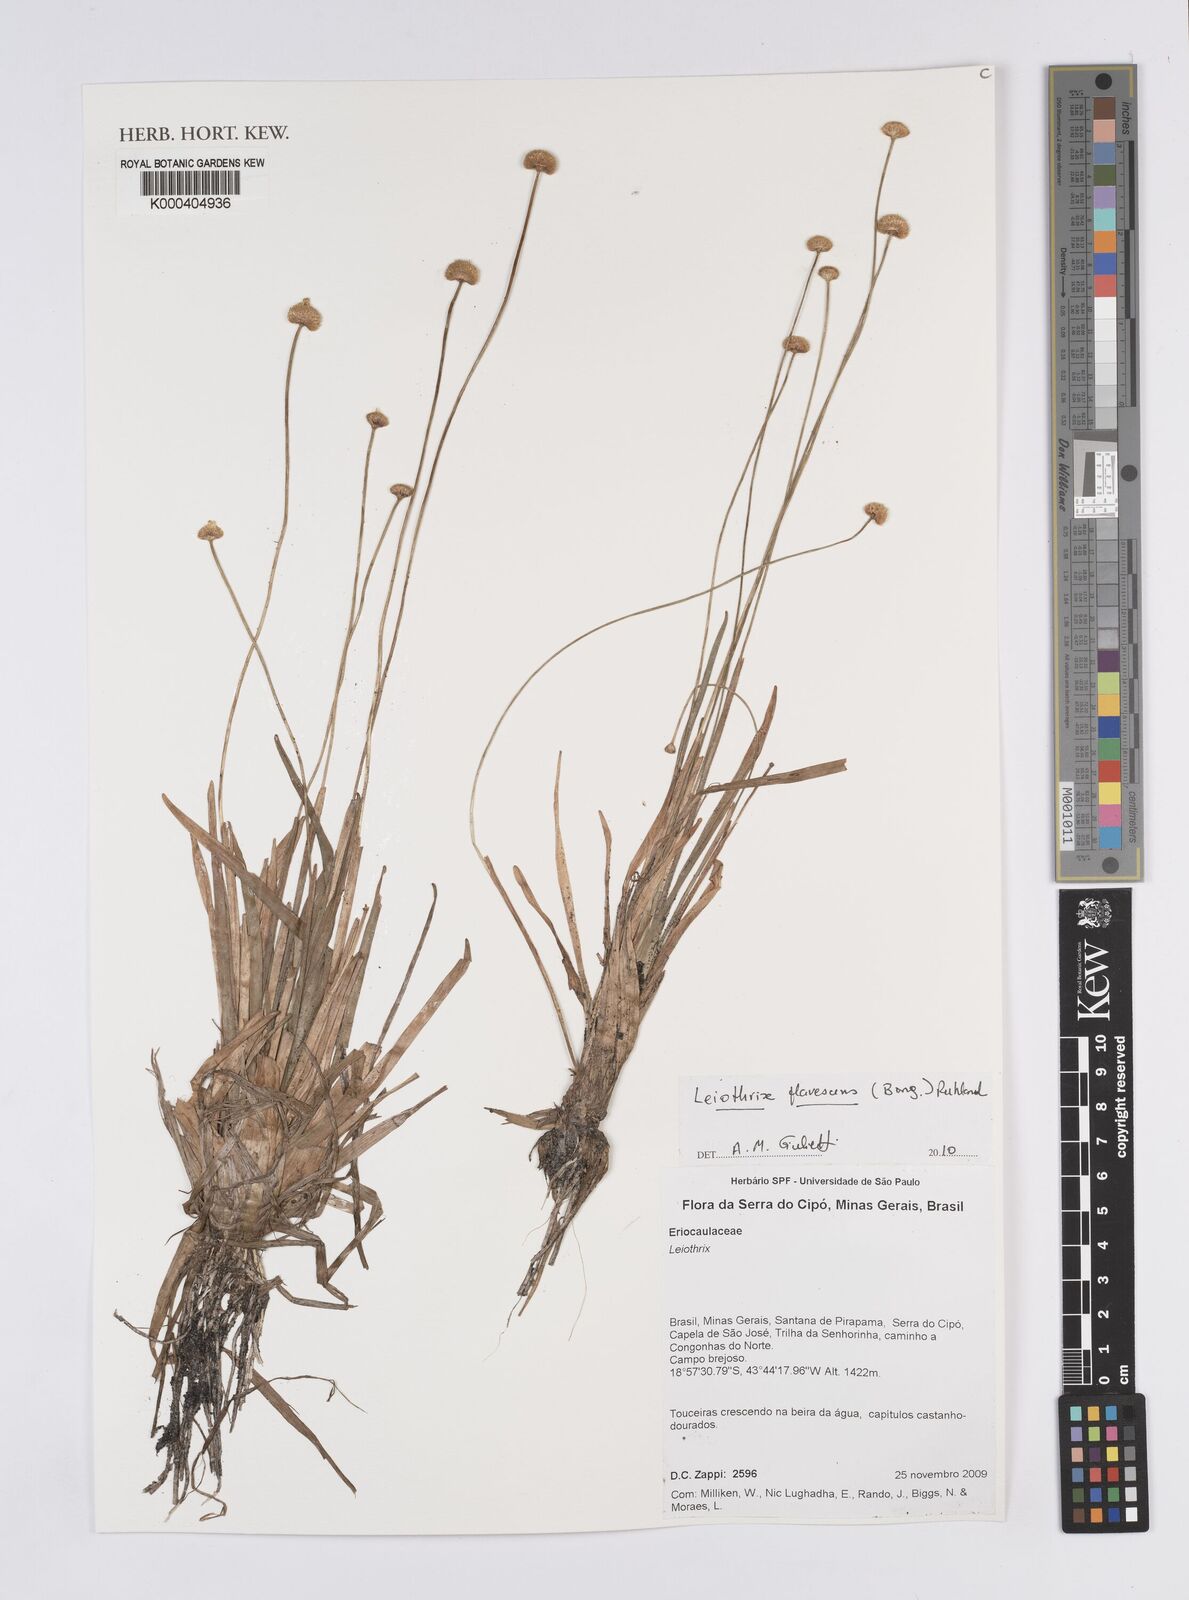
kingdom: Plantae
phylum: Tracheophyta
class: Liliopsida
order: Poales
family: Eriocaulaceae
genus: Leiothrix
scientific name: Leiothrix flavescens
